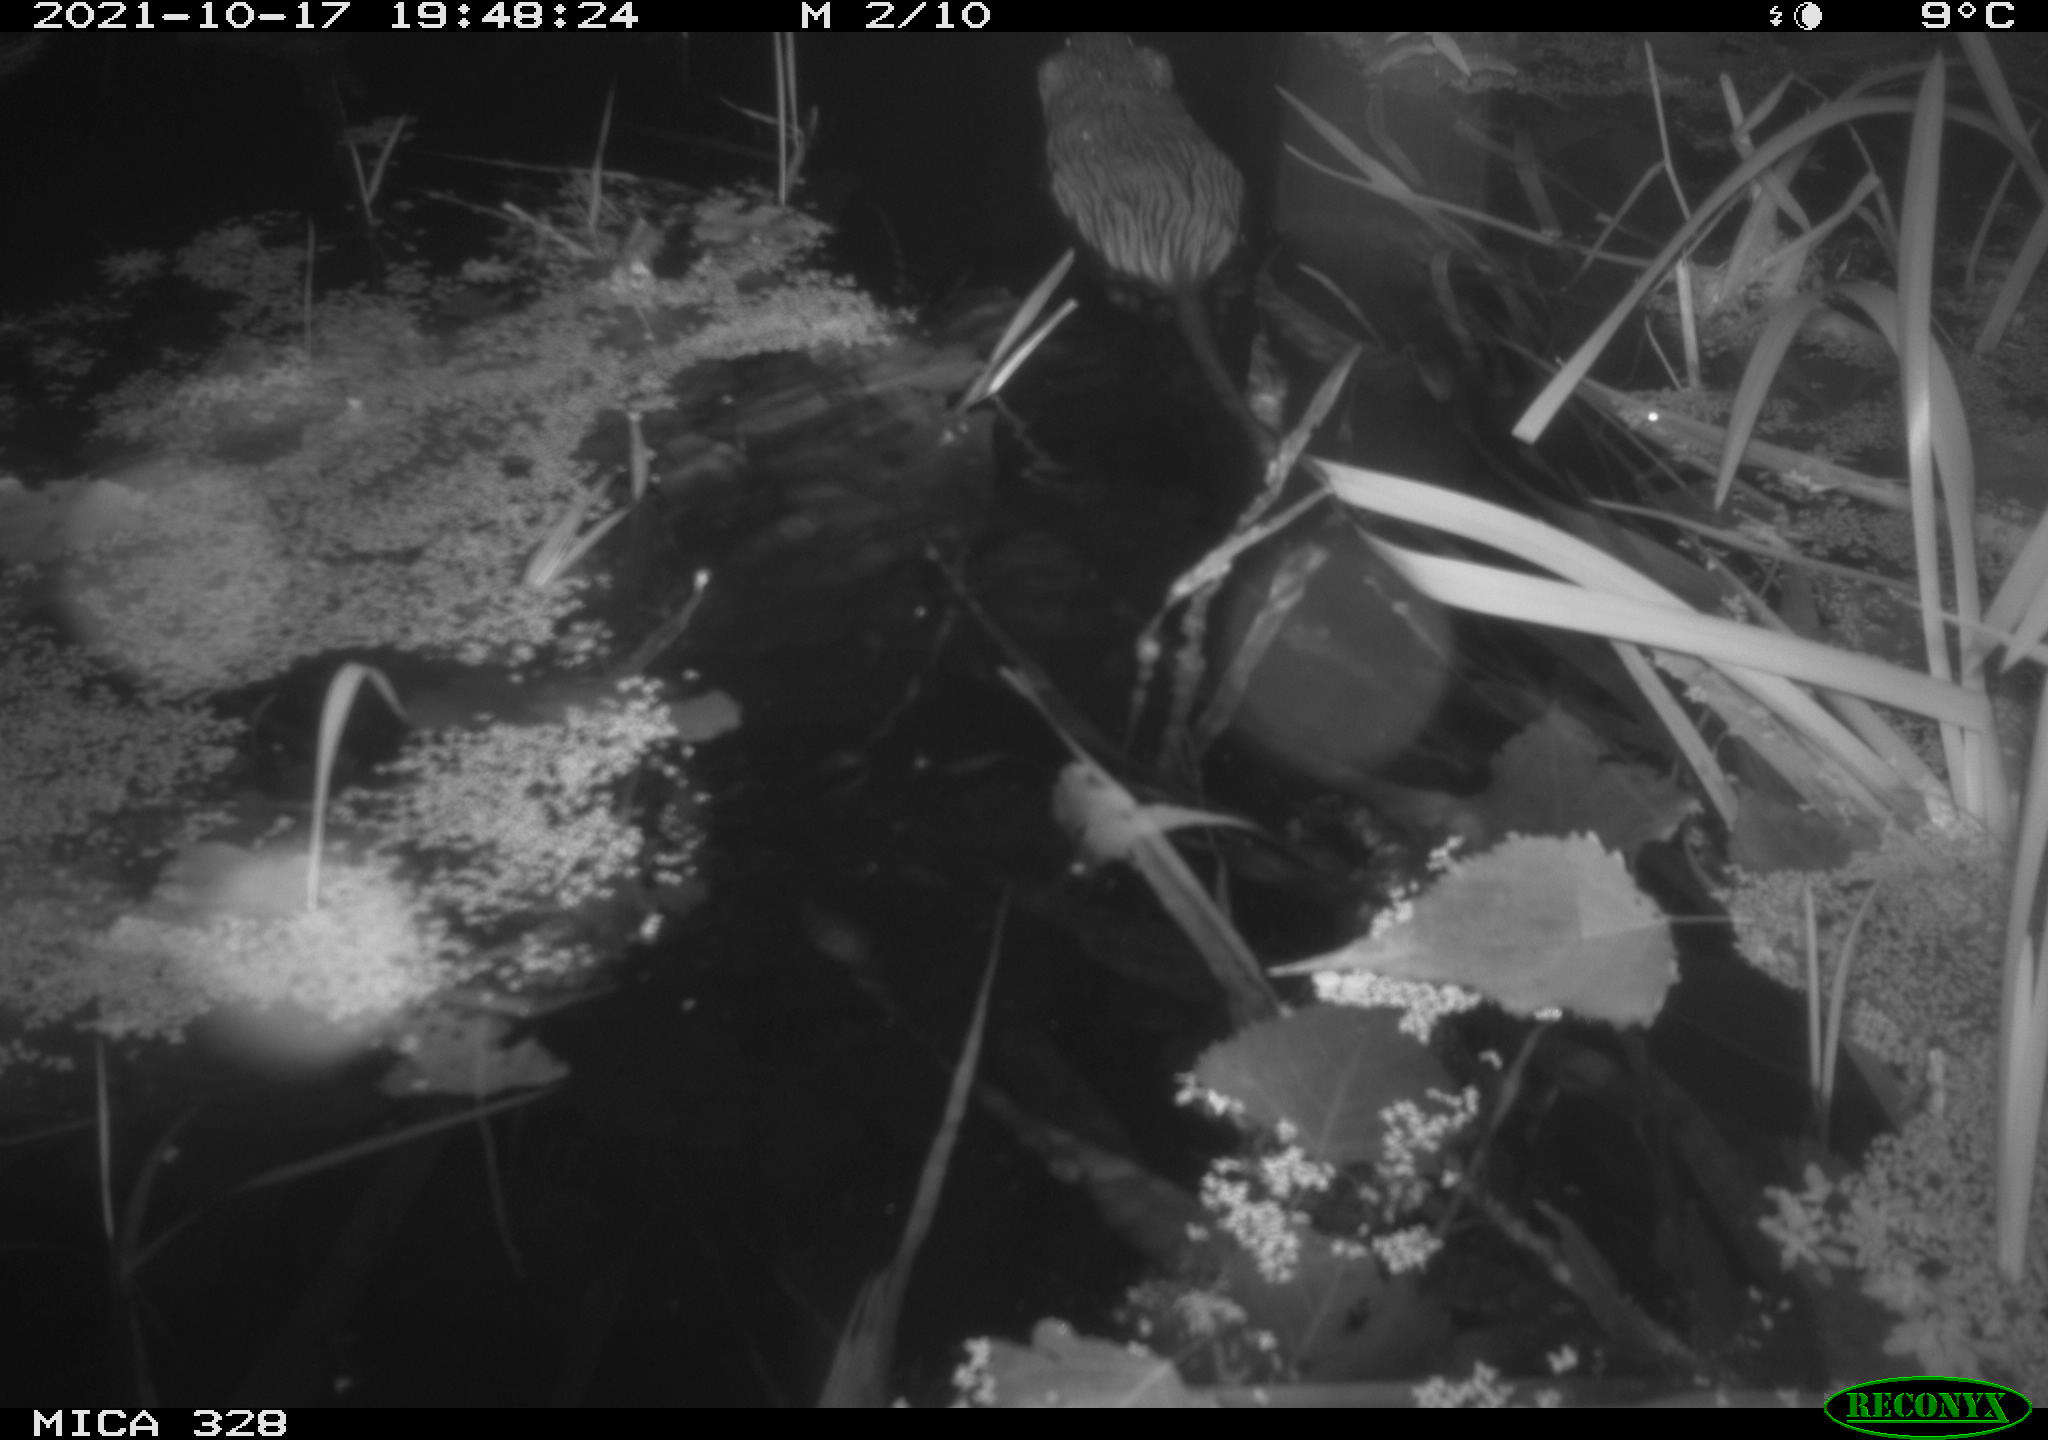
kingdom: Animalia
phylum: Chordata
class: Mammalia
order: Rodentia
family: Cricetidae
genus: Ondatra
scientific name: Ondatra zibethicus
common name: Muskrat
